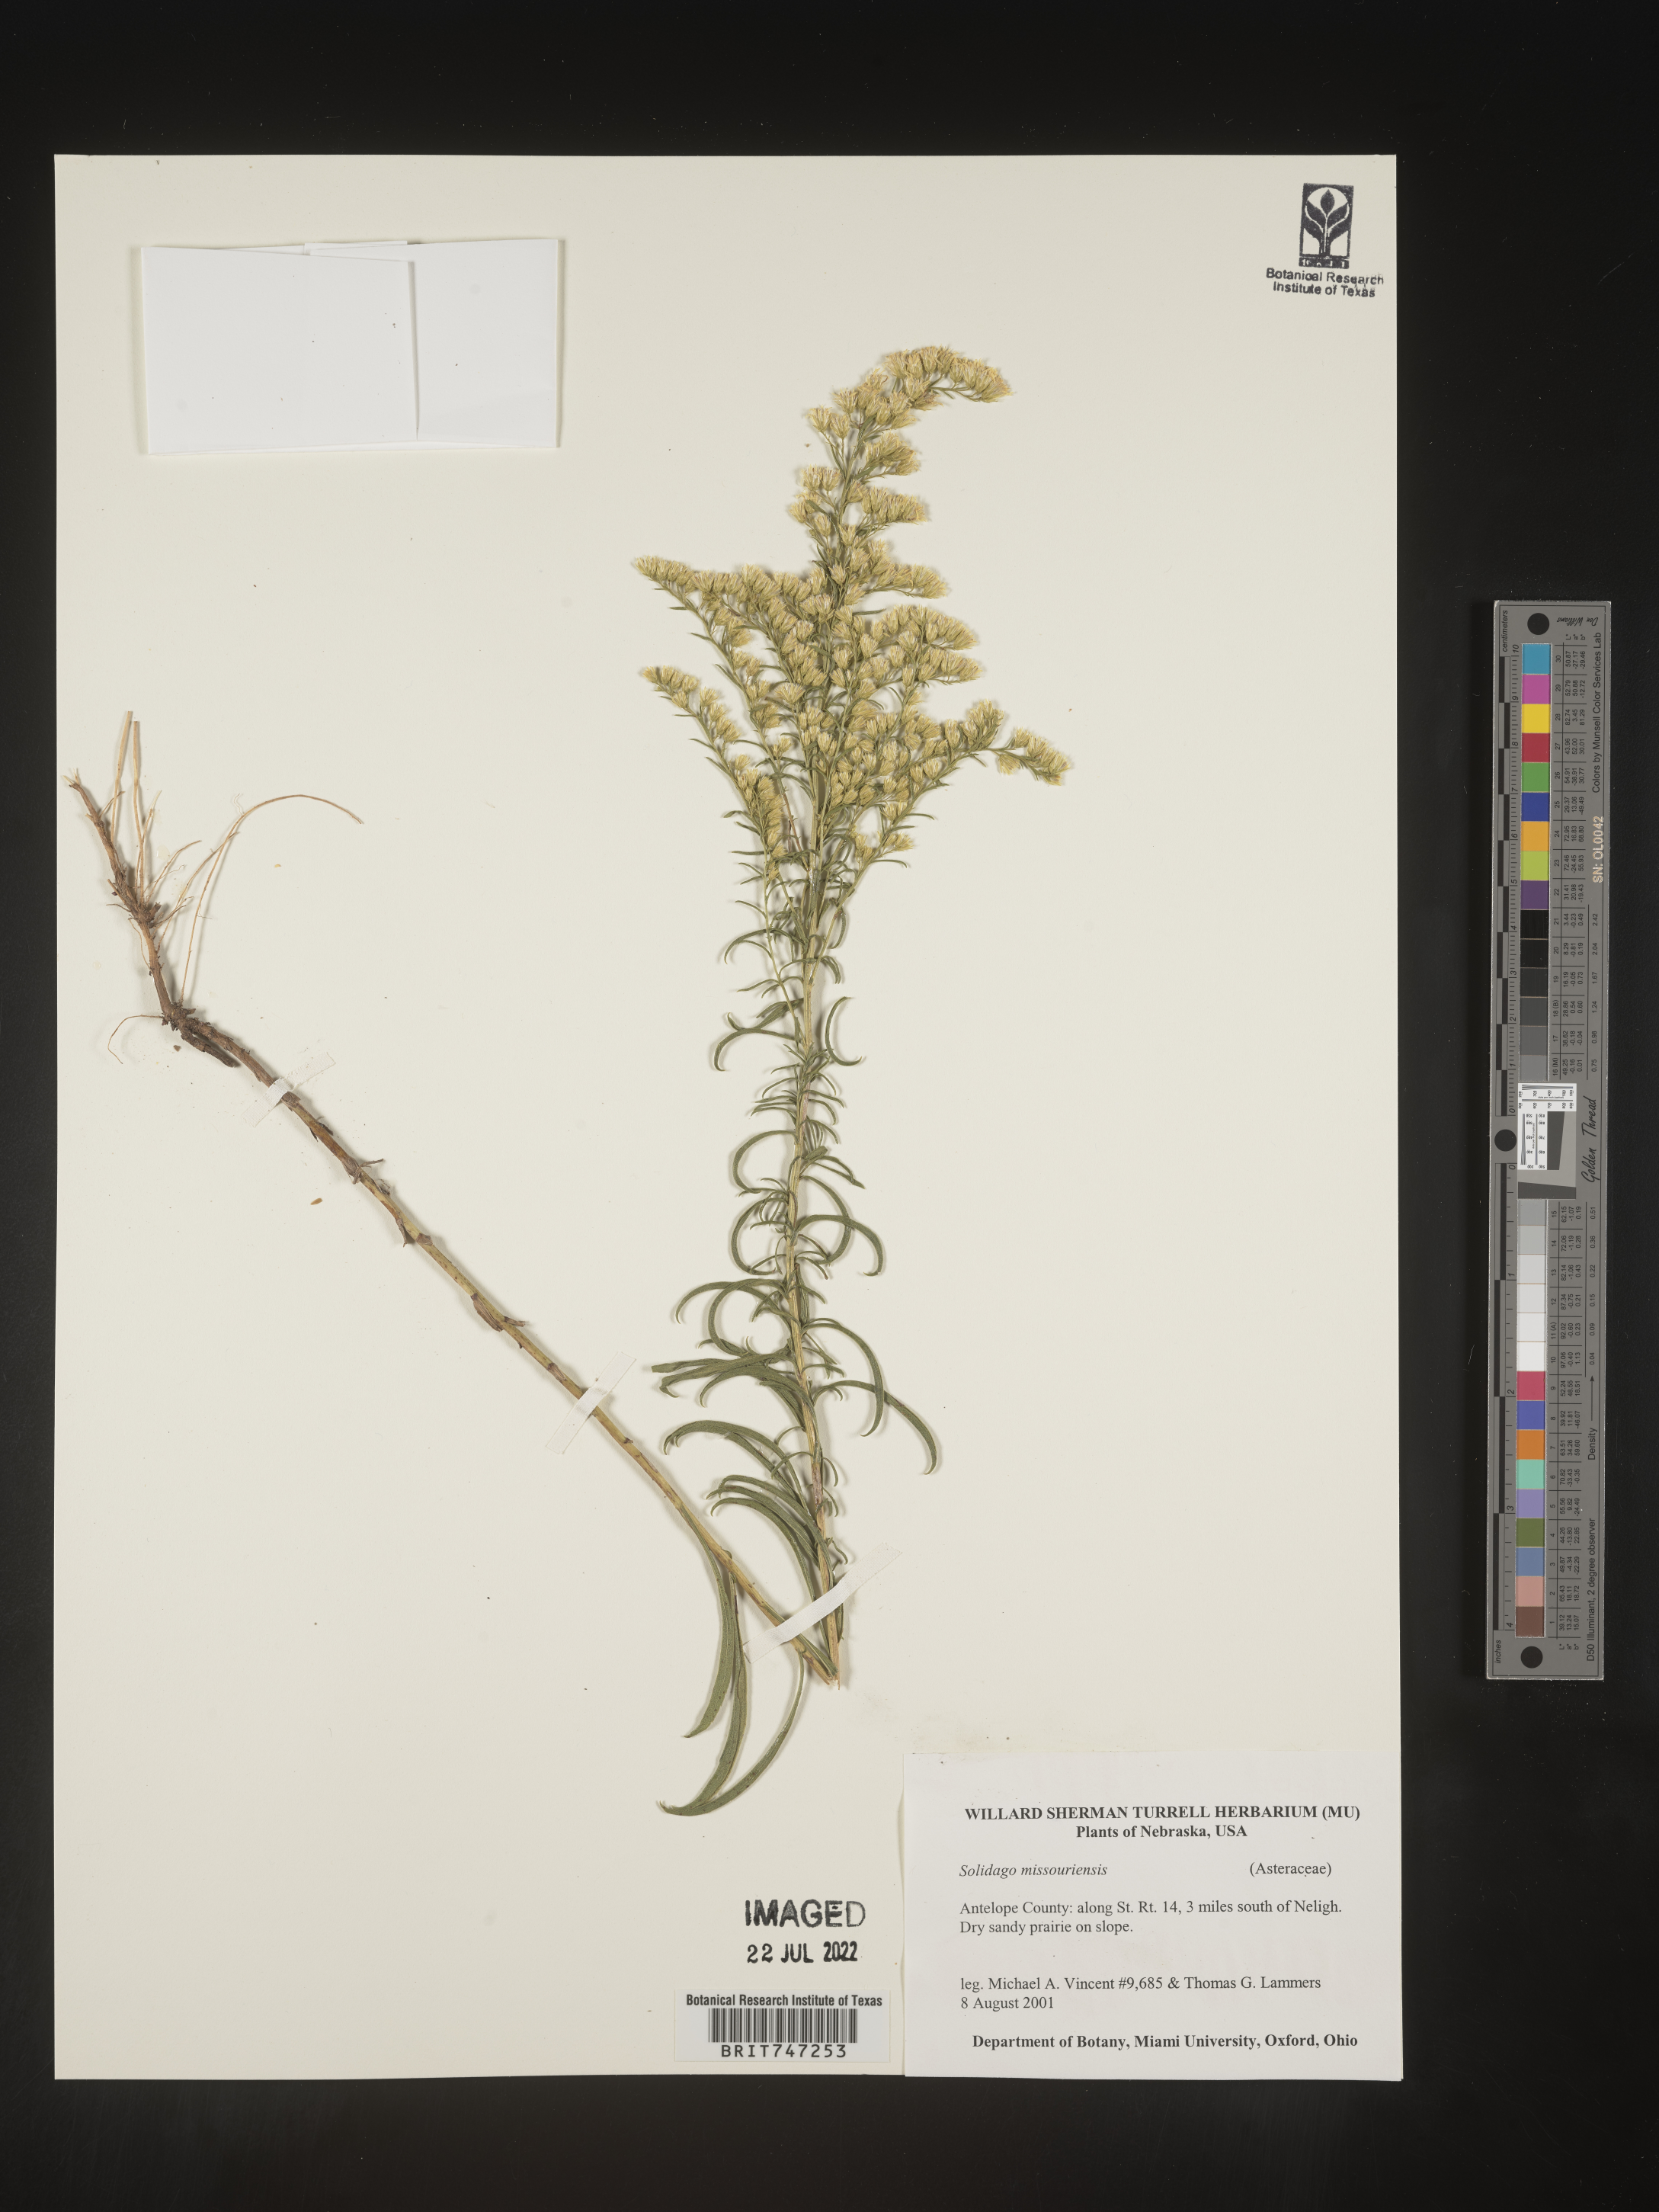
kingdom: Plantae
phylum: Tracheophyta
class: Magnoliopsida
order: Asterales
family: Asteraceae
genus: Solidago
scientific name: Solidago missouriensis
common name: Prairie goldenrod
